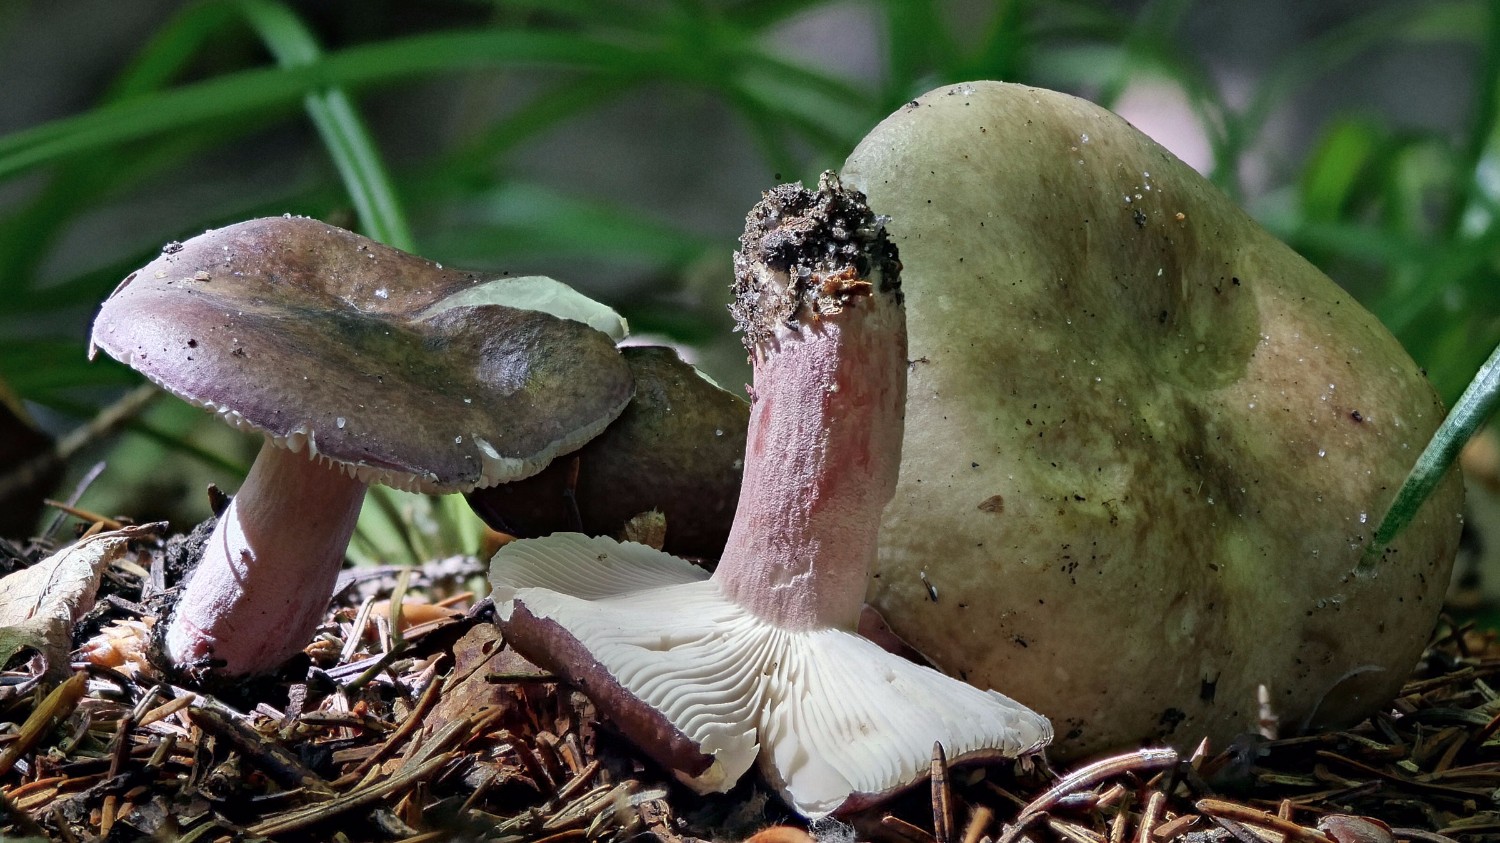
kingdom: Fungi
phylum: Basidiomycota
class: Agaricomycetes
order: Russulales
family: Russulaceae
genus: Russula
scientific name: Russula queletii
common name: Quélets skørhat
